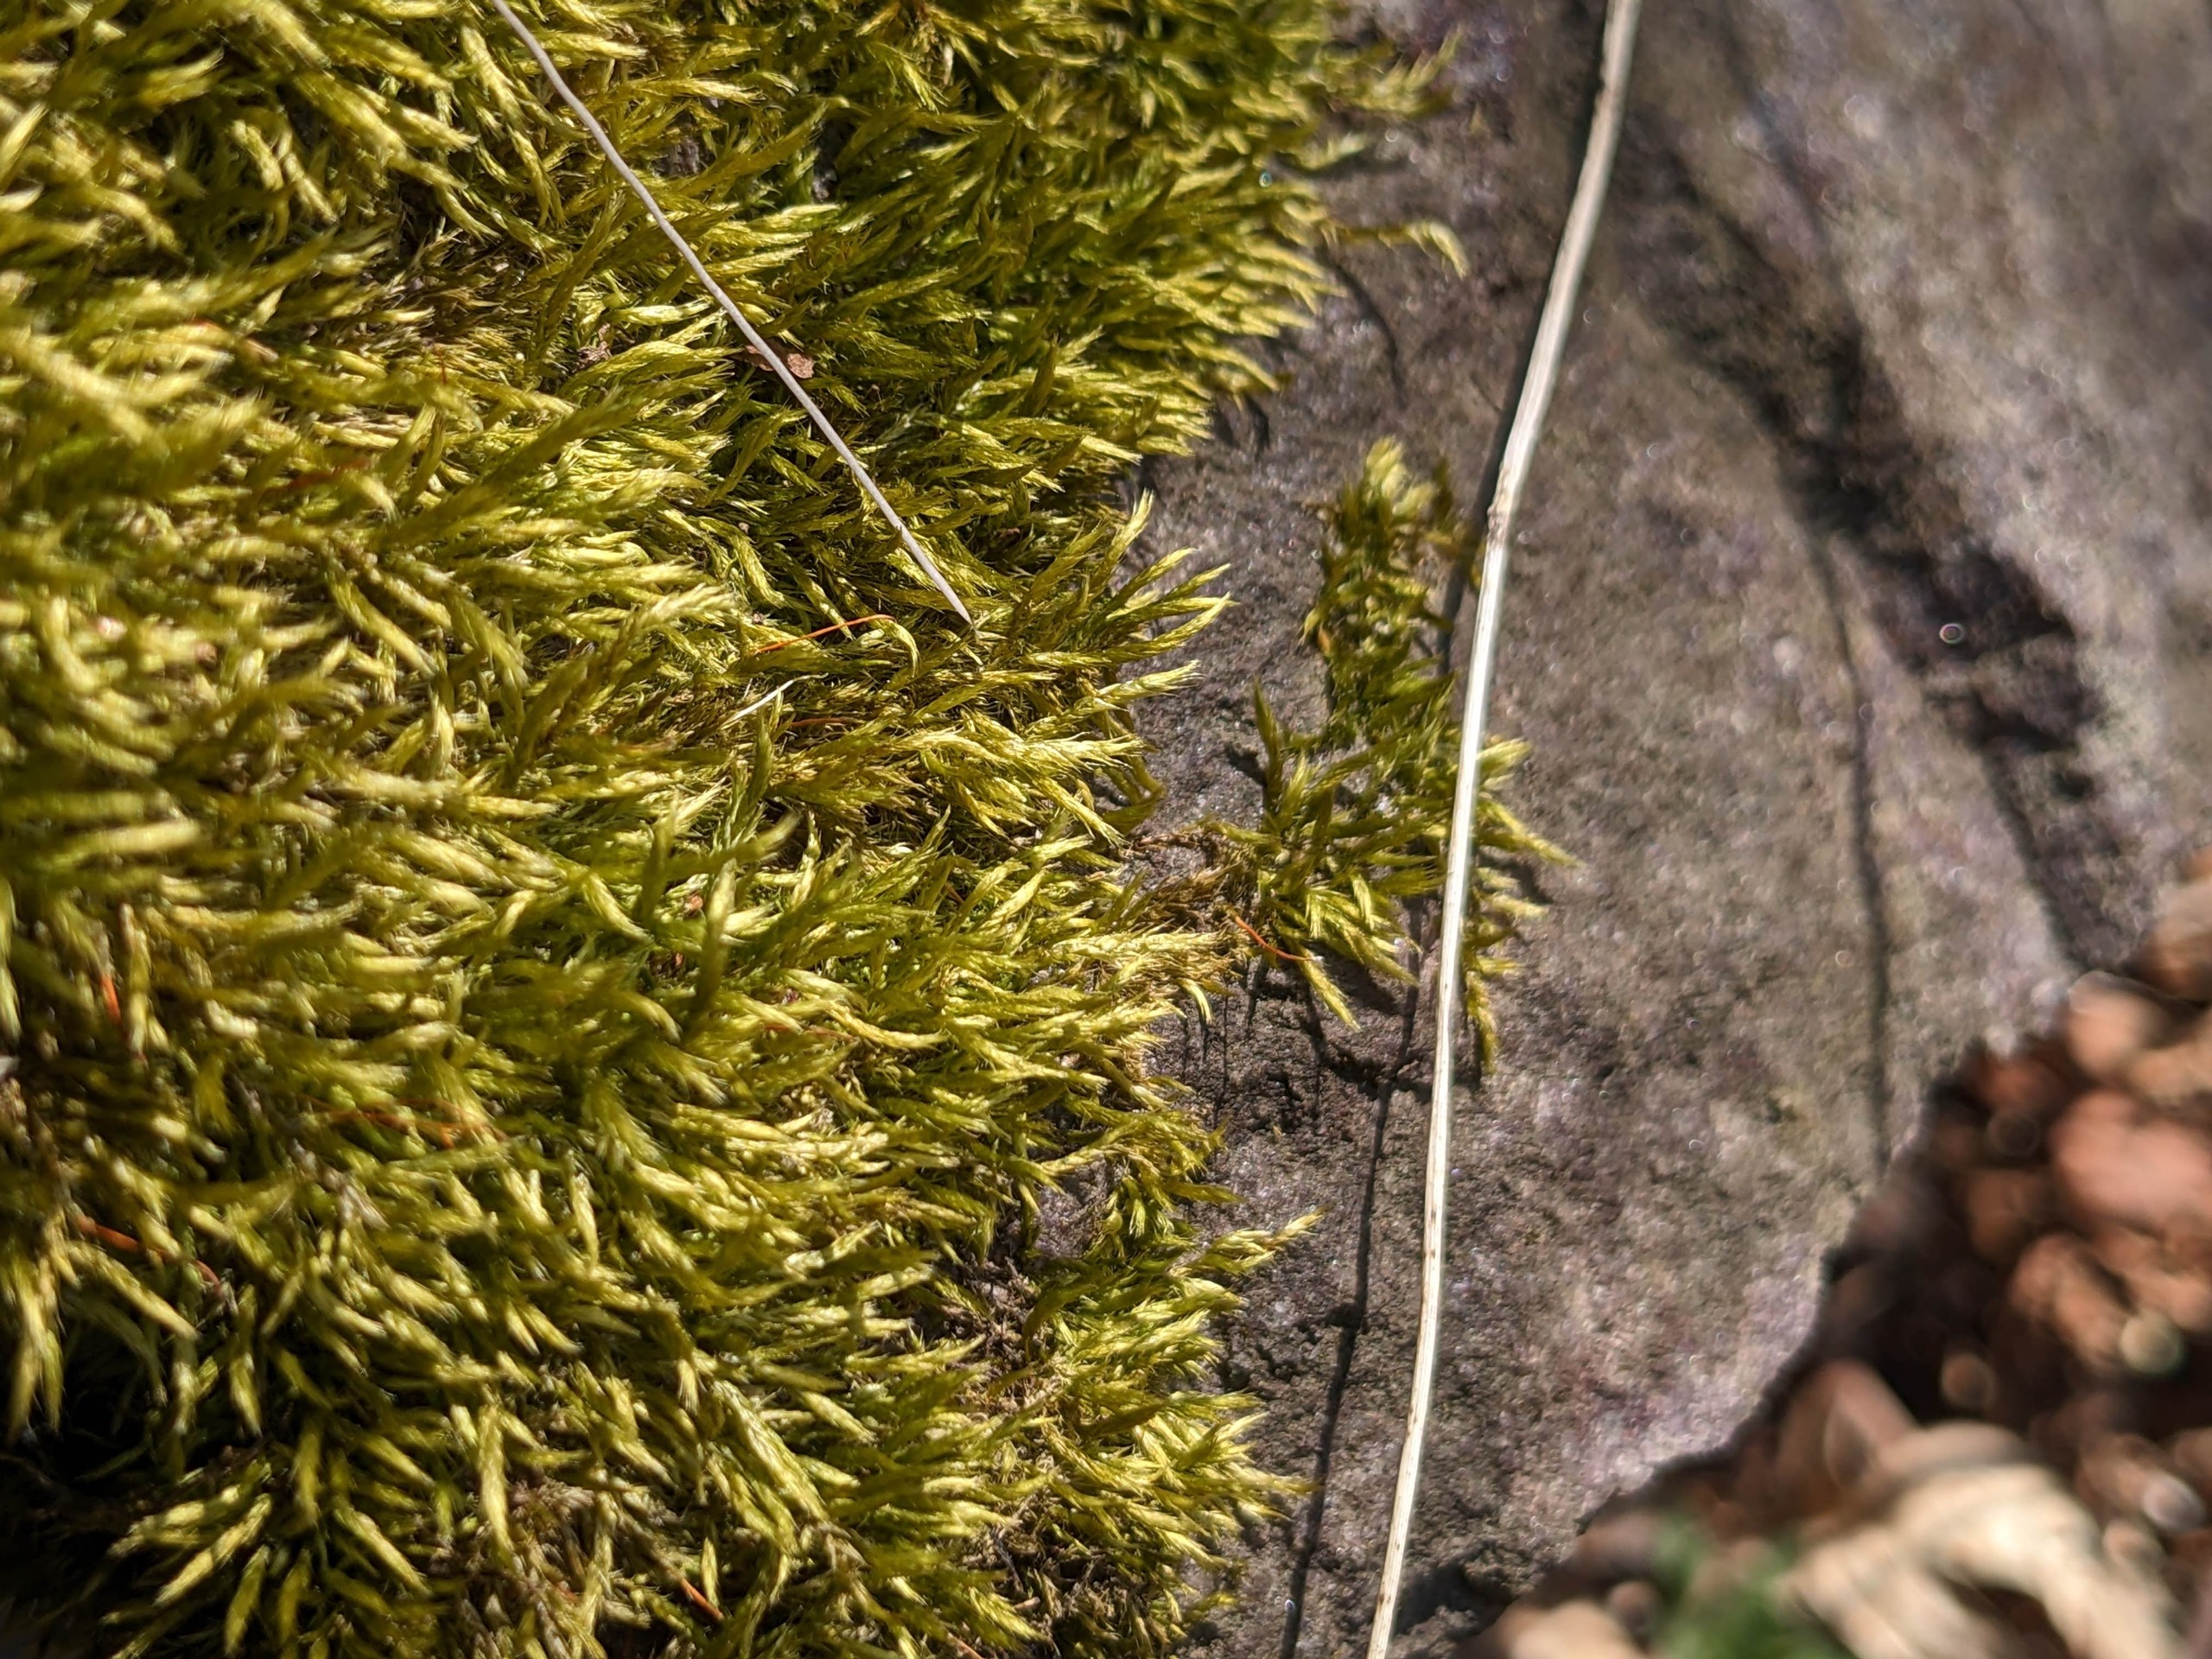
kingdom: Plantae
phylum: Bryophyta
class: Bryopsida
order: Hypnales
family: Brachytheciaceae
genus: Sciuro-hypnum
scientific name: Sciuro-hypnum populeum
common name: Park-kortkapsel
